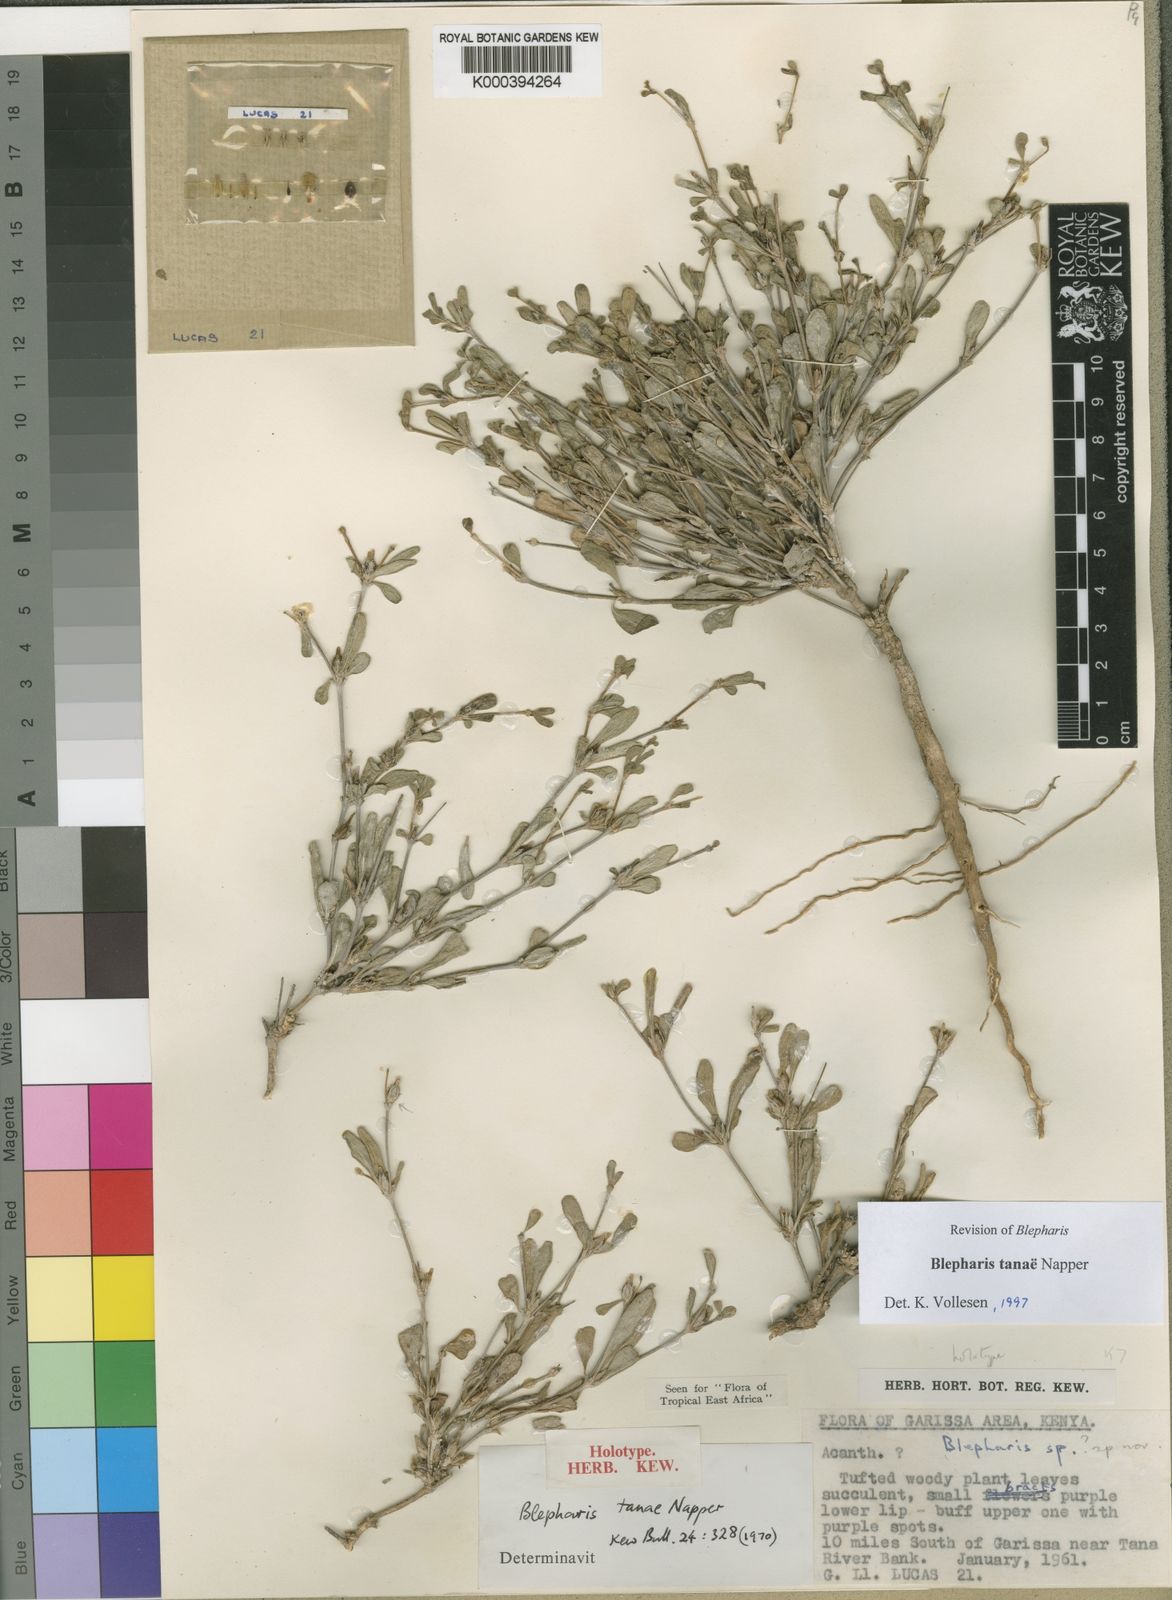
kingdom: Plantae
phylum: Tracheophyta
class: Magnoliopsida
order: Lamiales
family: Acanthaceae
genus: Blepharis
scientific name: Blepharis tanae
